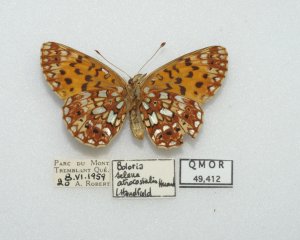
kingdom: Animalia
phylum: Arthropoda
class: Insecta
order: Lepidoptera
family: Nymphalidae
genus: Boloria
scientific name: Boloria selene
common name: Silver-bordered Fritillary
